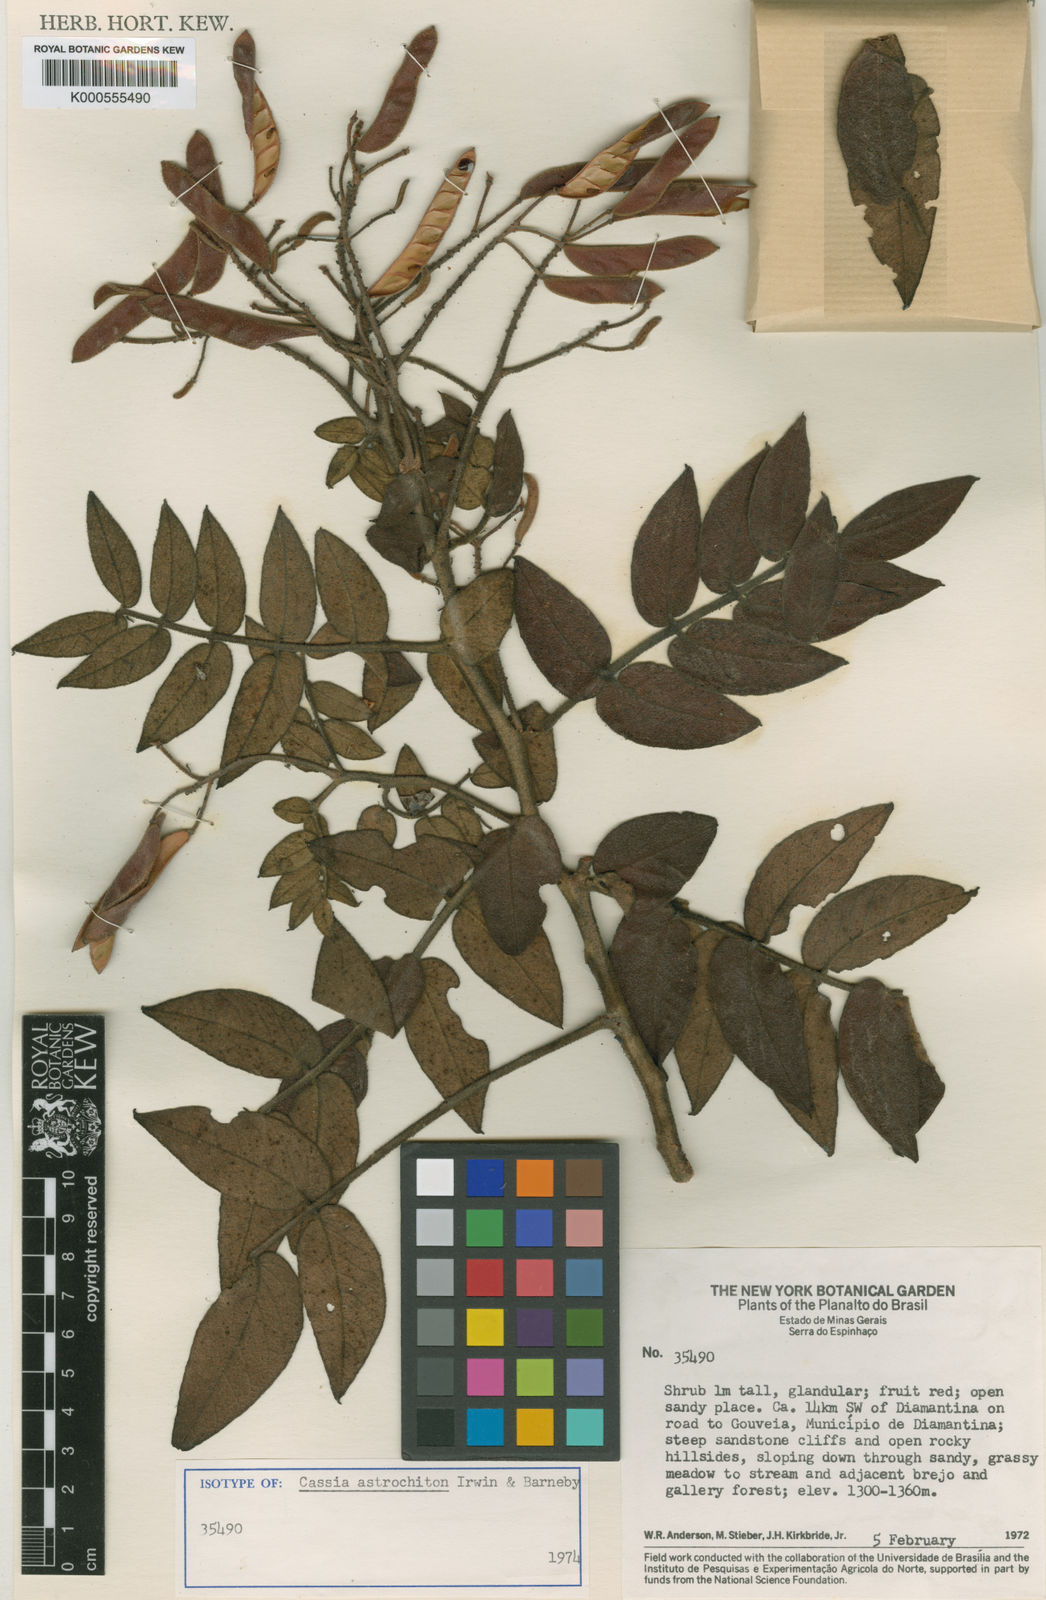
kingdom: Plantae
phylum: Tracheophyta
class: Magnoliopsida
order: Fabales
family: Fabaceae
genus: Chamaecrista
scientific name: Chamaecrista astrochiton
